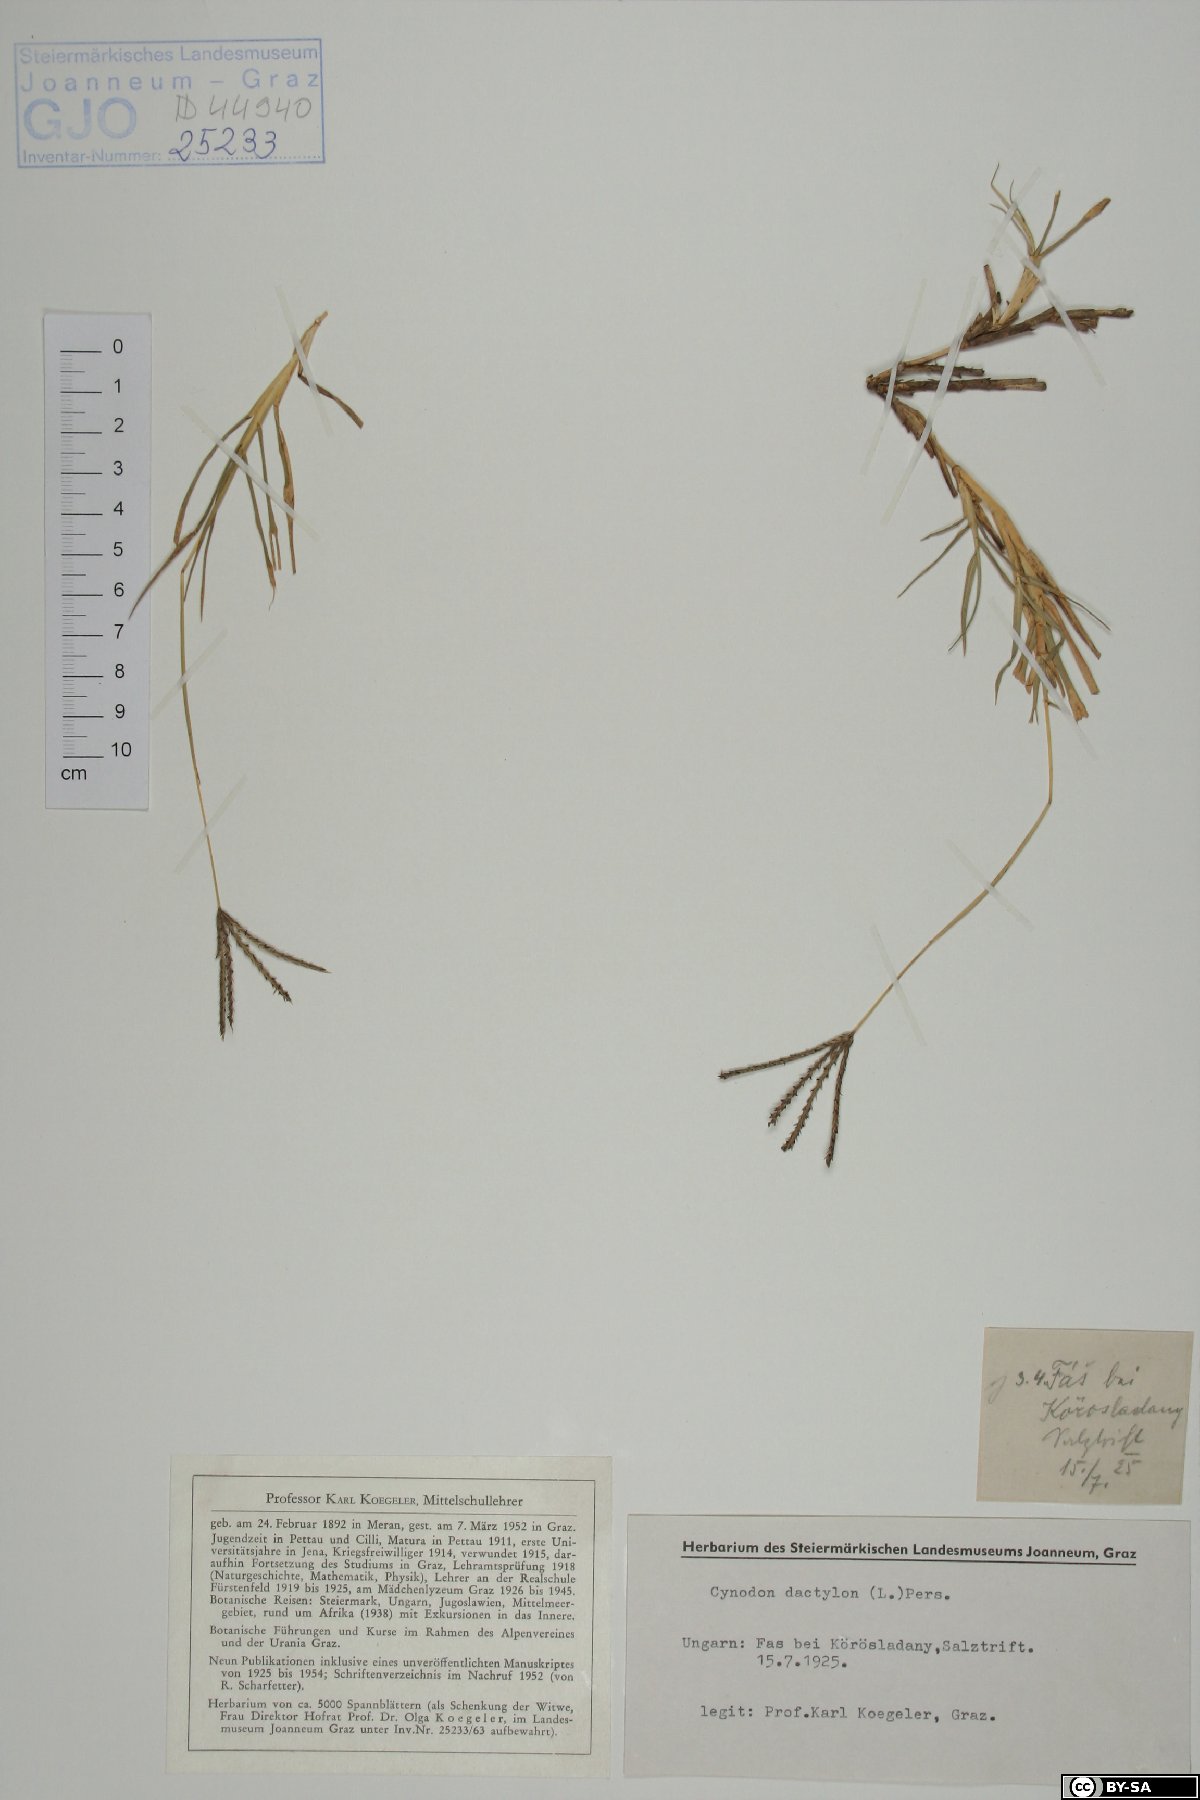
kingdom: Plantae
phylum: Tracheophyta
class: Liliopsida
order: Poales
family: Poaceae
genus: Cynodon
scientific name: Cynodon dactylon
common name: Bermuda grass
